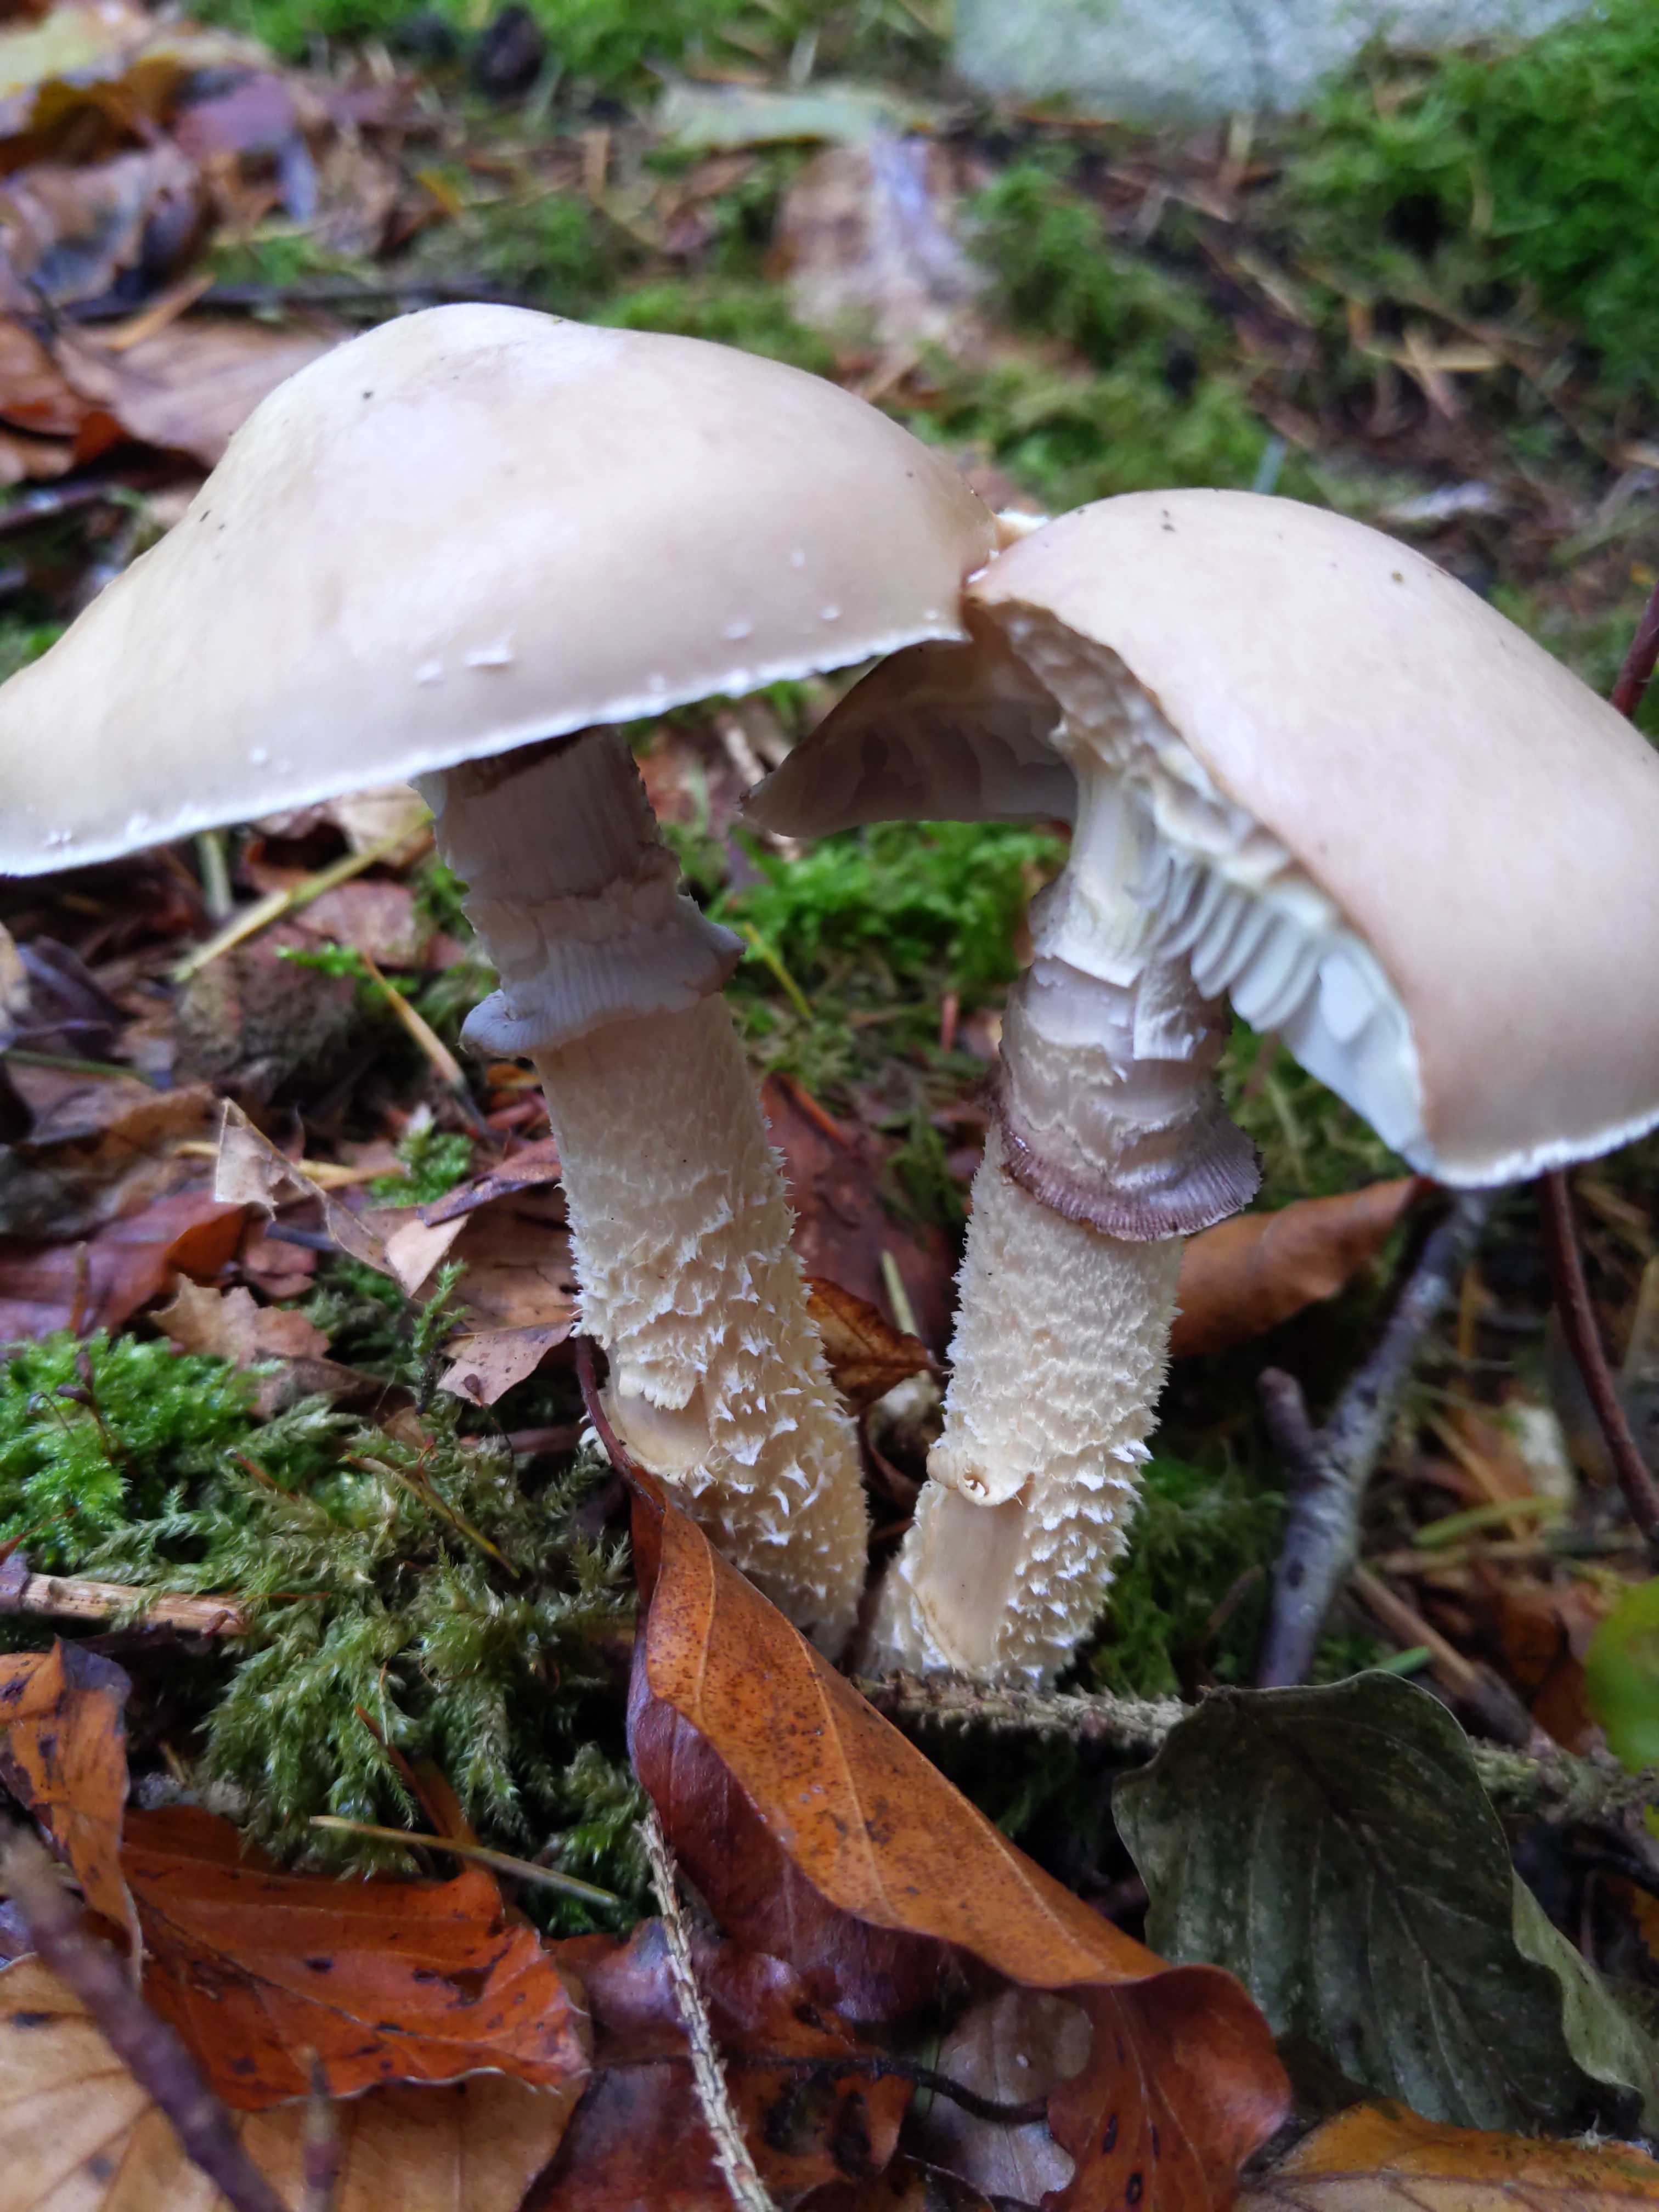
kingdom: Fungi
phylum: Basidiomycota
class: Agaricomycetes
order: Agaricales
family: Strophariaceae
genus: Stropharia
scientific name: Stropharia hornemannii
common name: nordisk bredblad
